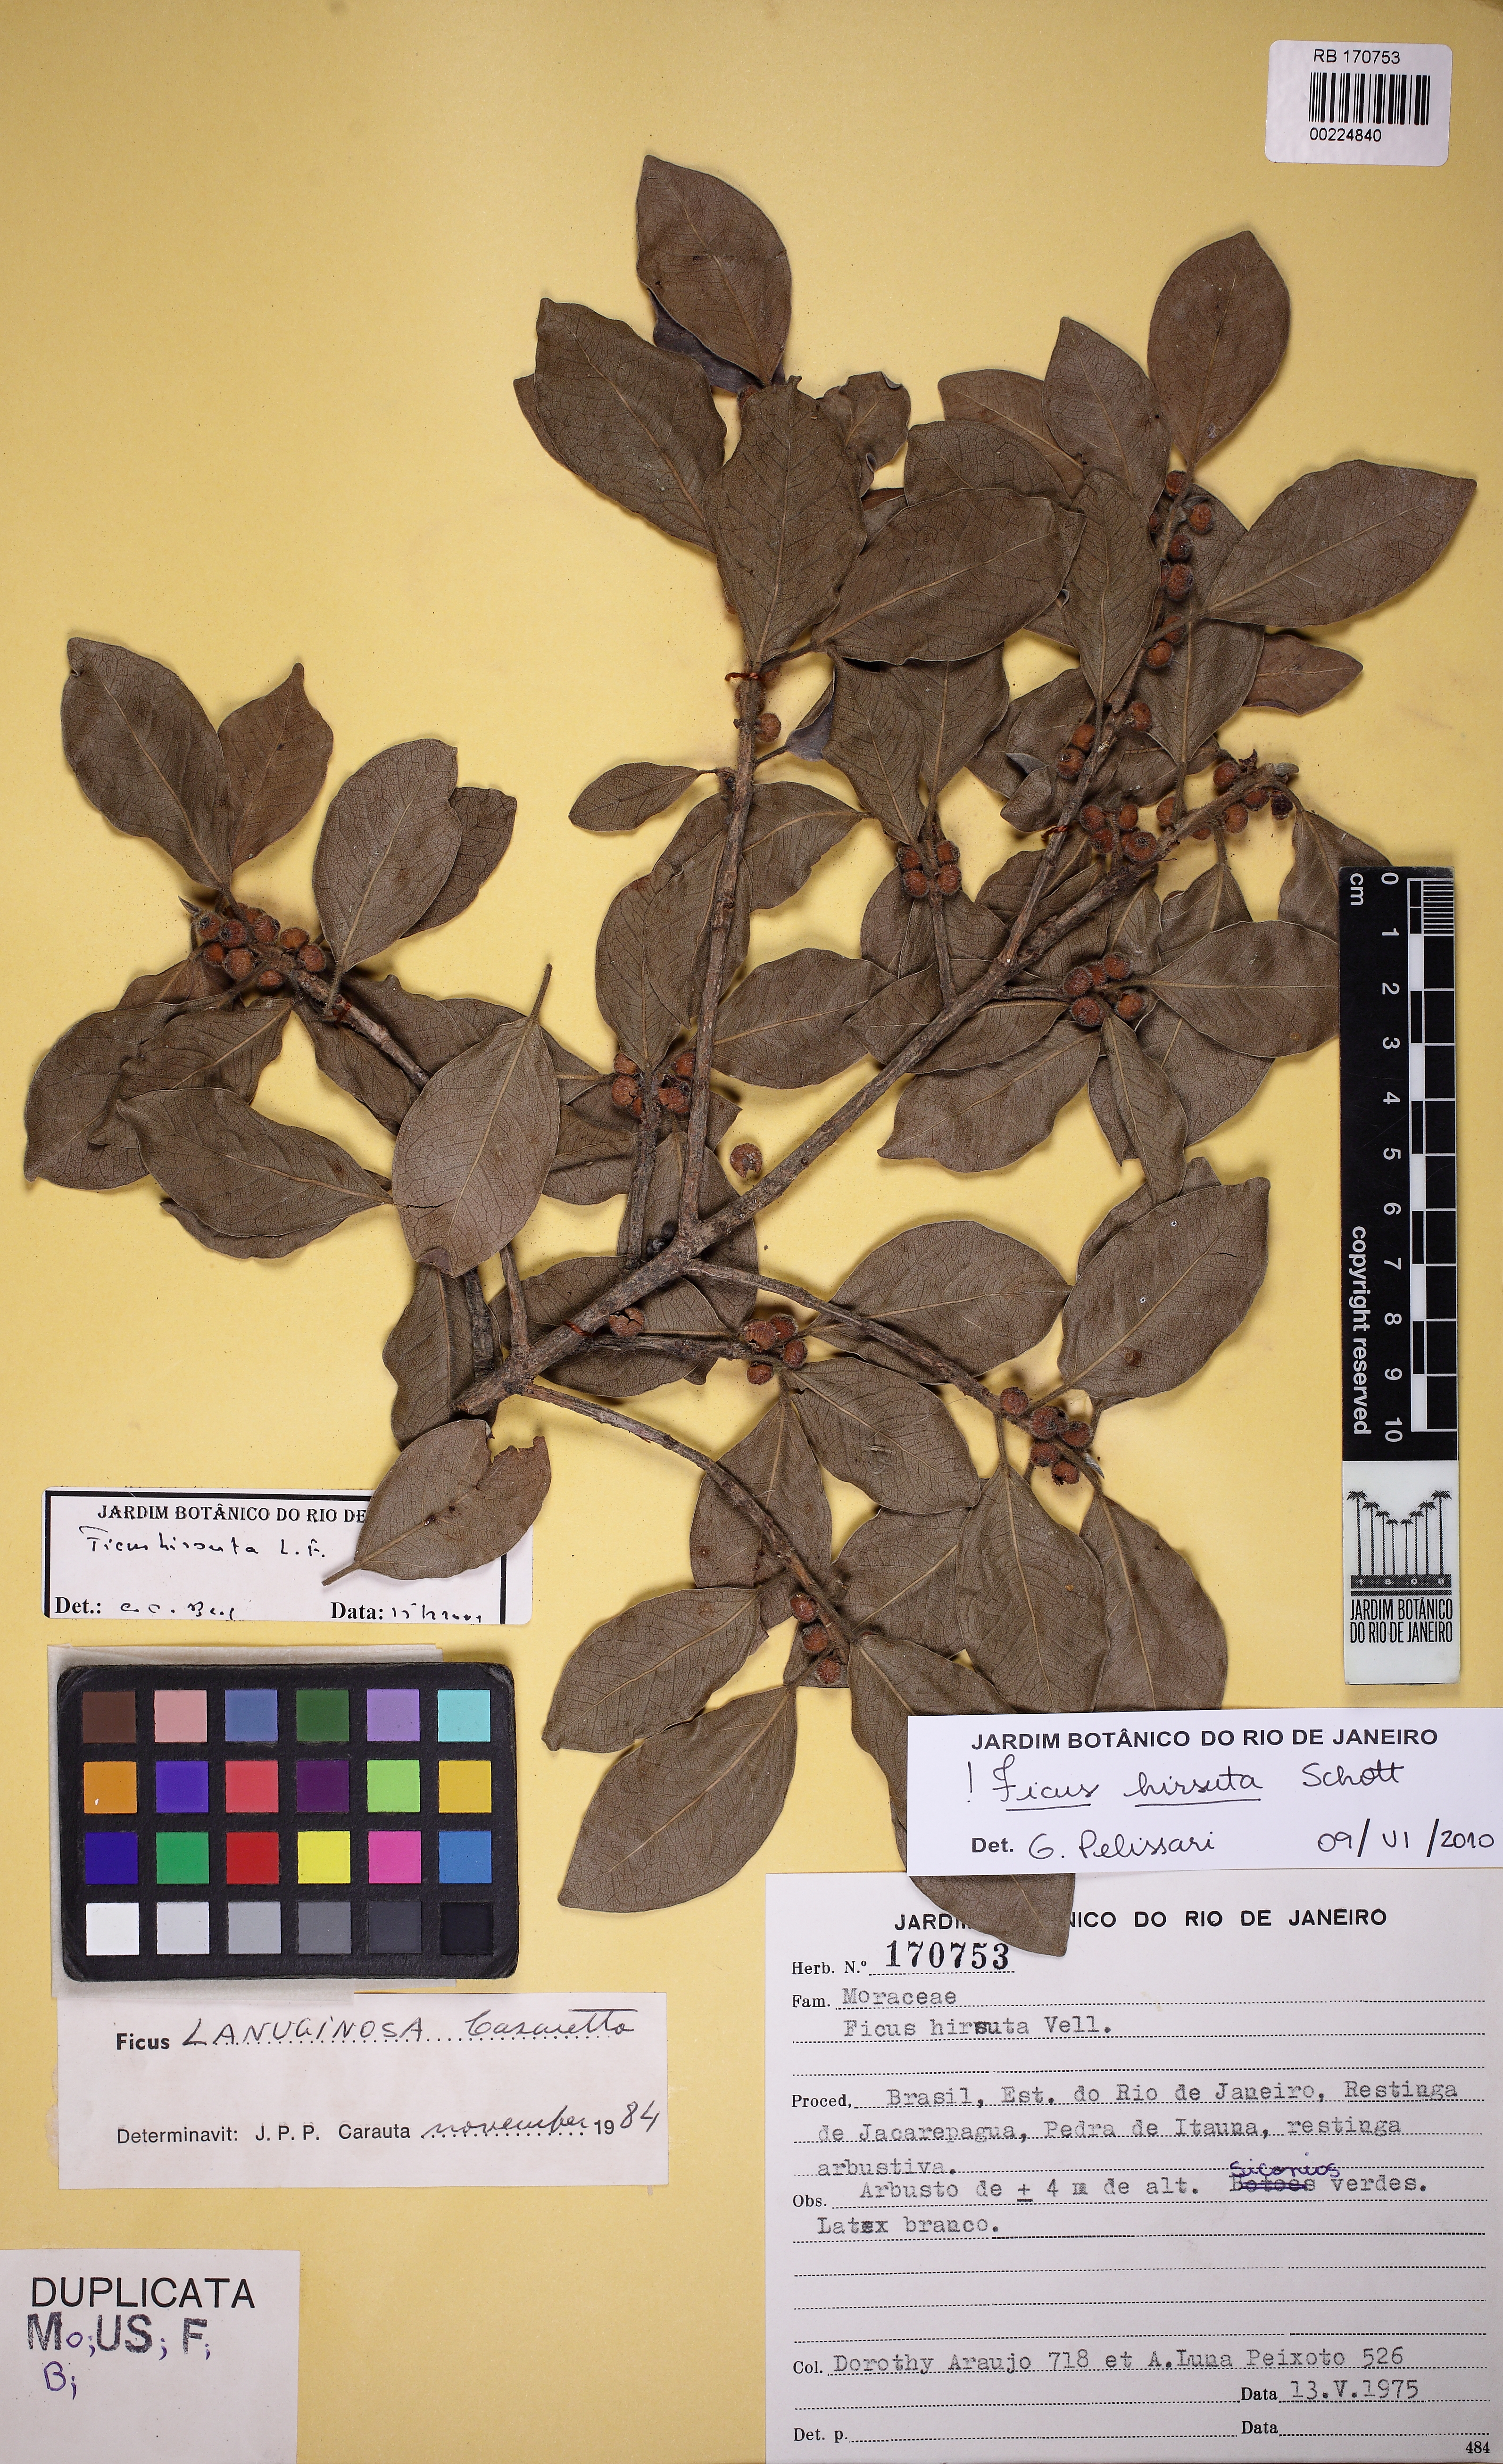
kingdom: Plantae
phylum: Tracheophyta
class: Magnoliopsida
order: Rosales
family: Moraceae
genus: Ficus
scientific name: Ficus hirsuta
